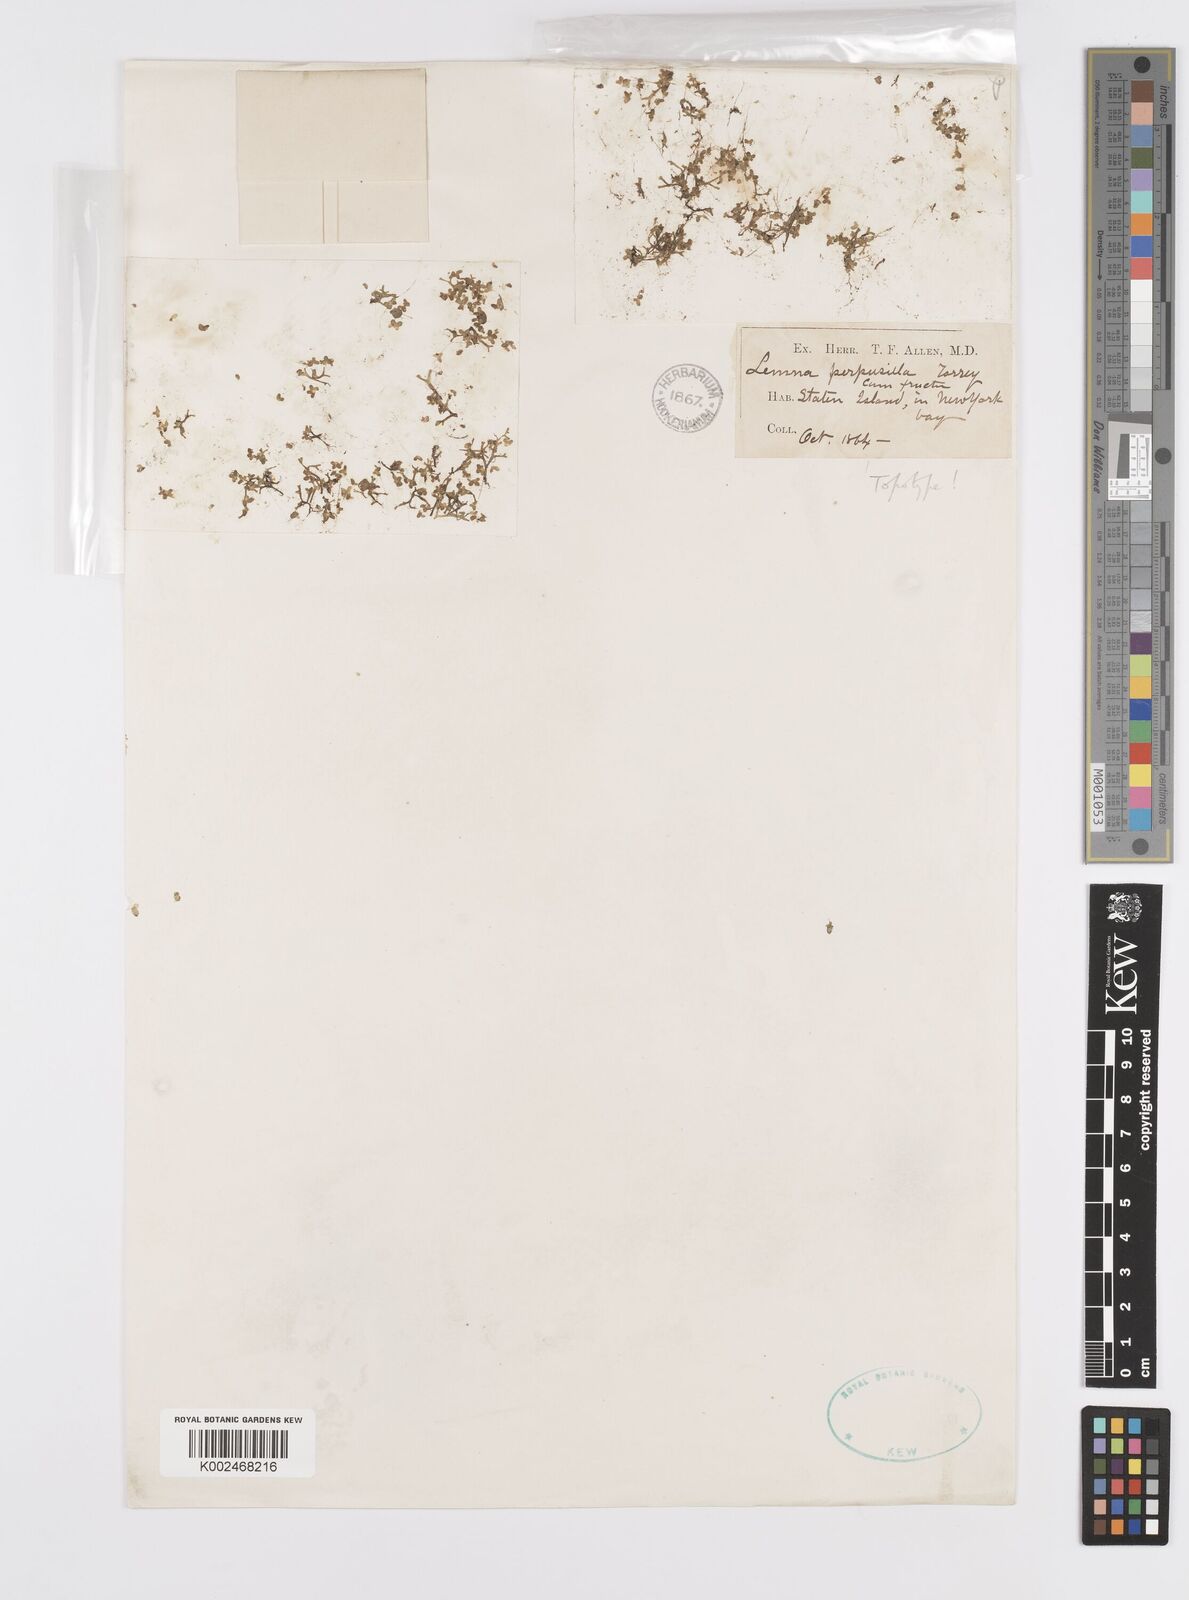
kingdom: Plantae
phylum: Tracheophyta
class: Liliopsida
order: Alismatales
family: Araceae
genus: Lemna
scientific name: Lemna perpusilla
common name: Duckweed
